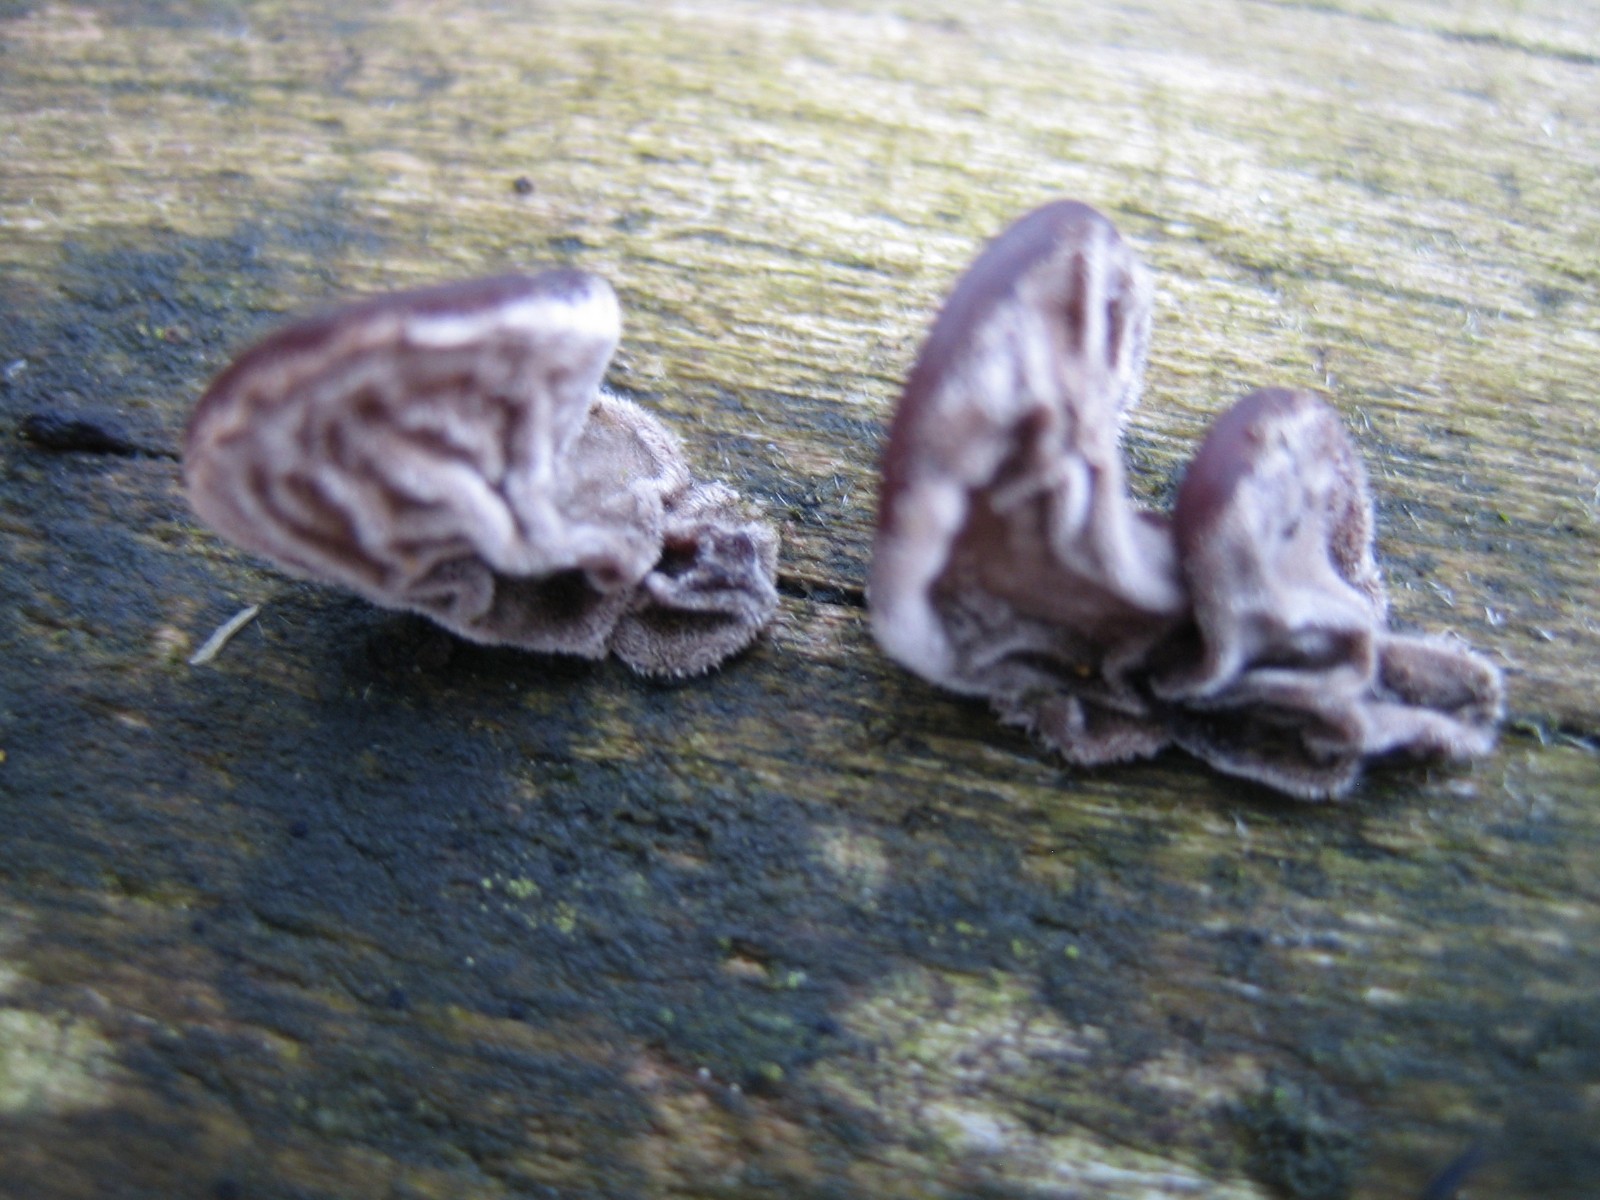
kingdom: Fungi
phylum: Basidiomycota
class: Agaricomycetes
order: Auriculariales
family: Auriculariaceae
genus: Auricularia
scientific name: Auricularia auricula-judae
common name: almindelig judasøre
